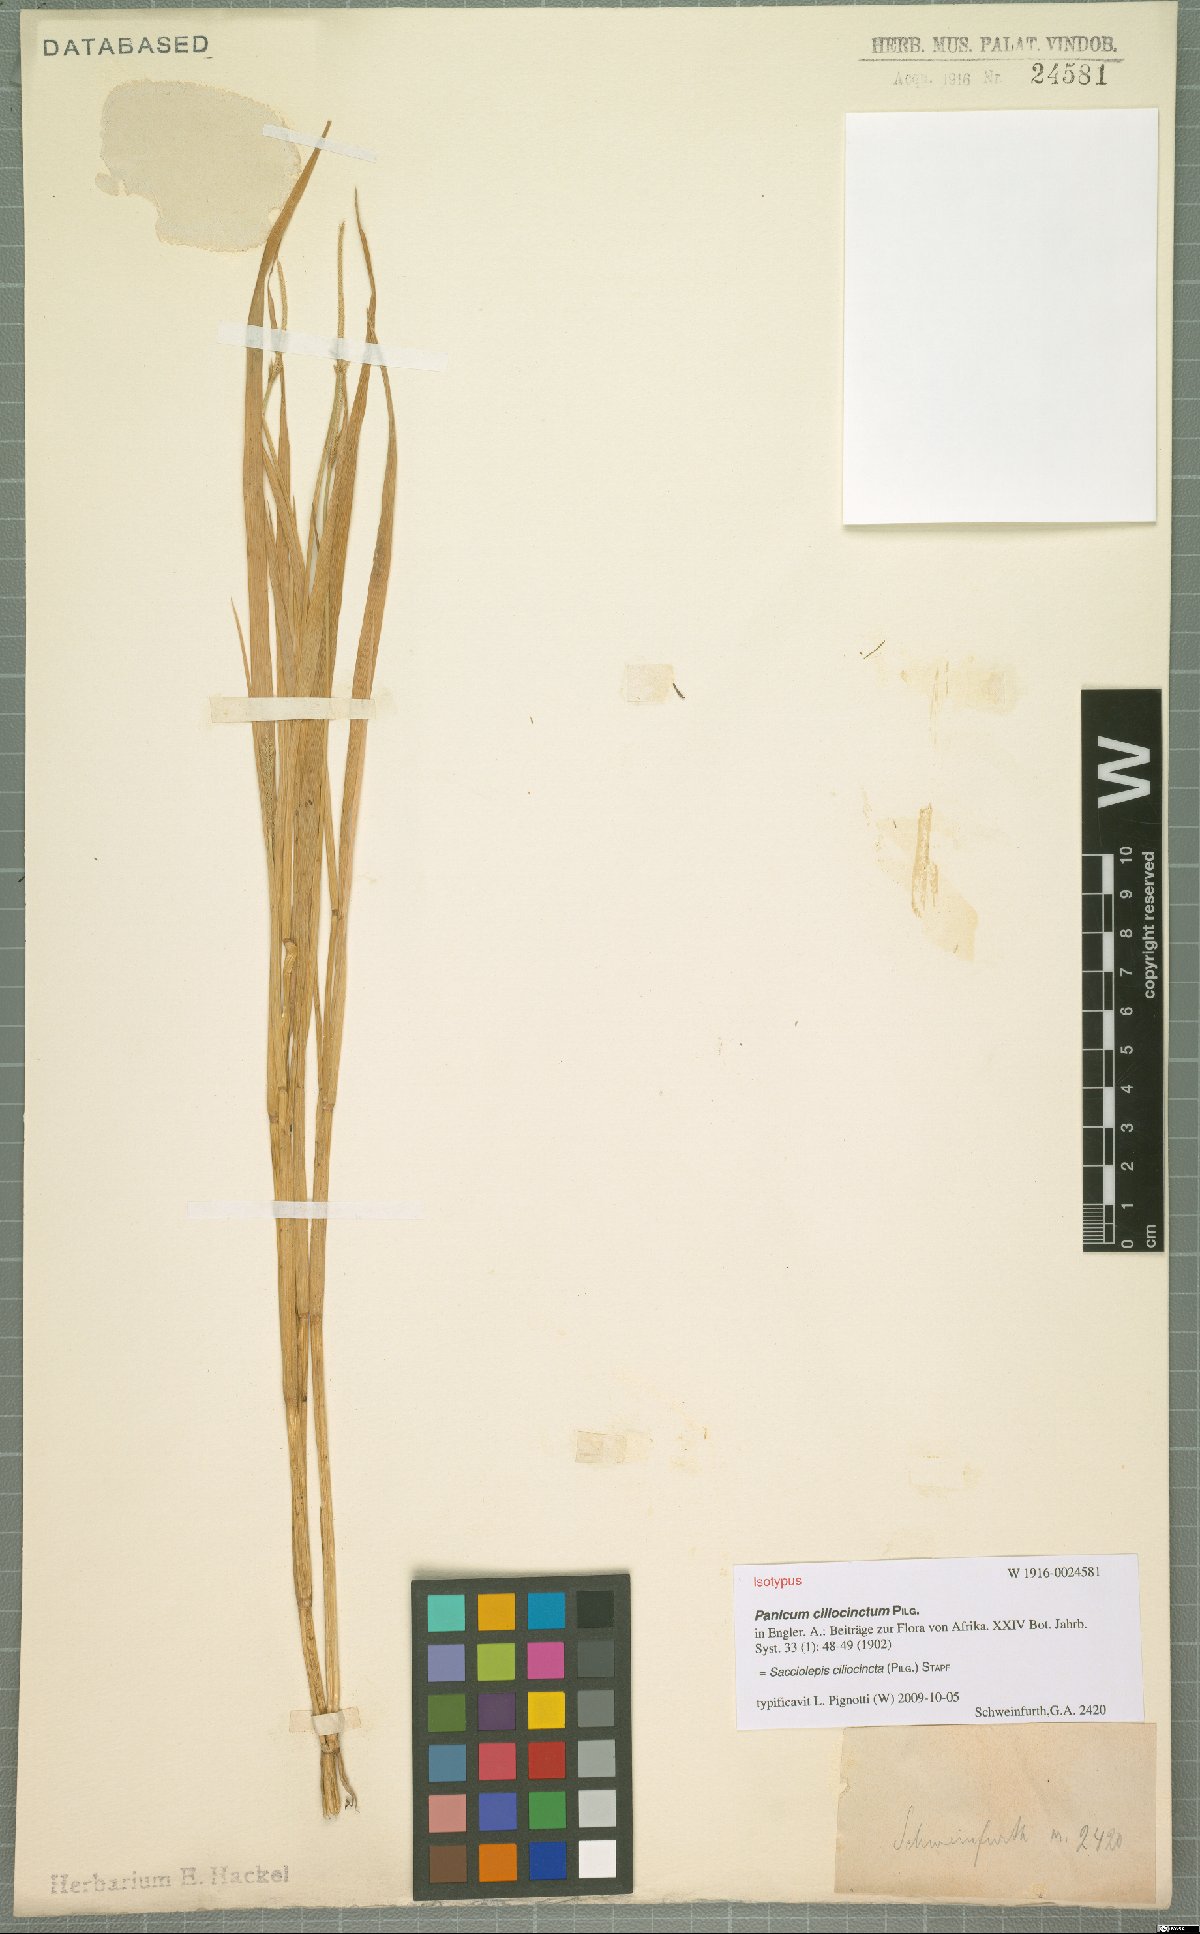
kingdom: Plantae
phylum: Tracheophyta
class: Liliopsida
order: Poales
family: Poaceae
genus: Sacciolepis
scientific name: Sacciolepis ciliocincta
